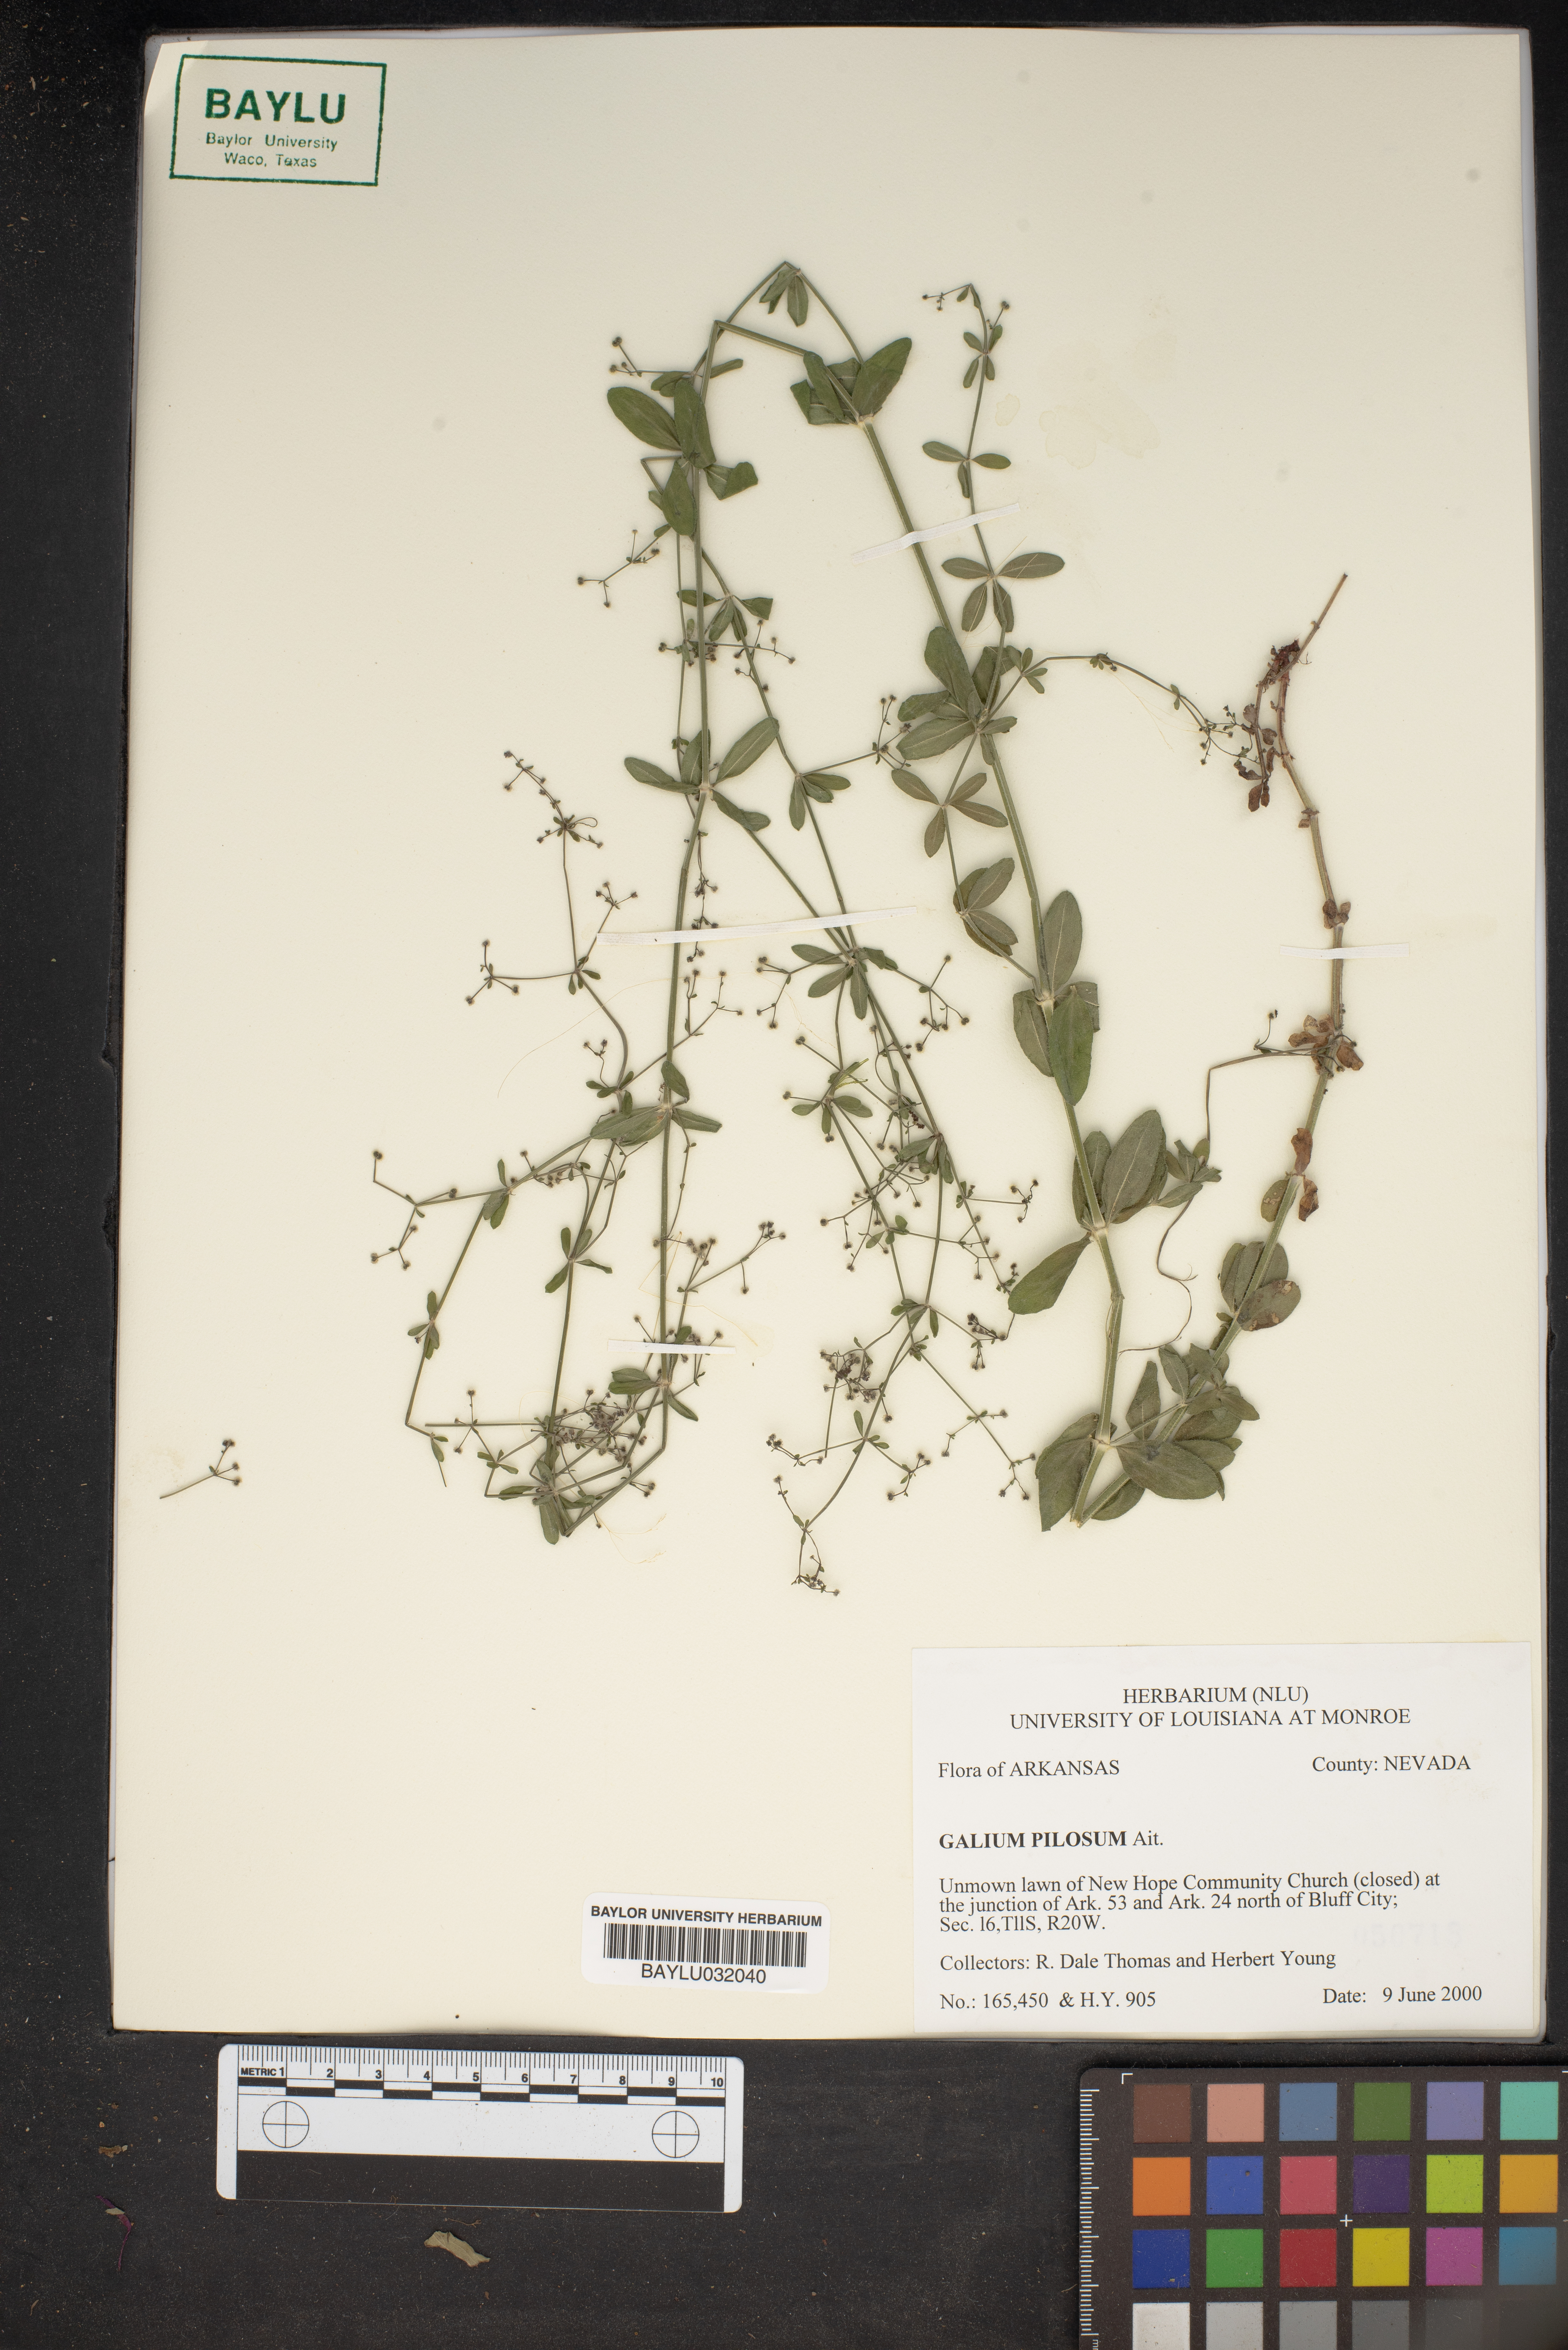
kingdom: Plantae
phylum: Tracheophyta
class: Magnoliopsida
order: Gentianales
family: Rubiaceae
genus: Galium
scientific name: Galium pilosum
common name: Hairy bedstraw
